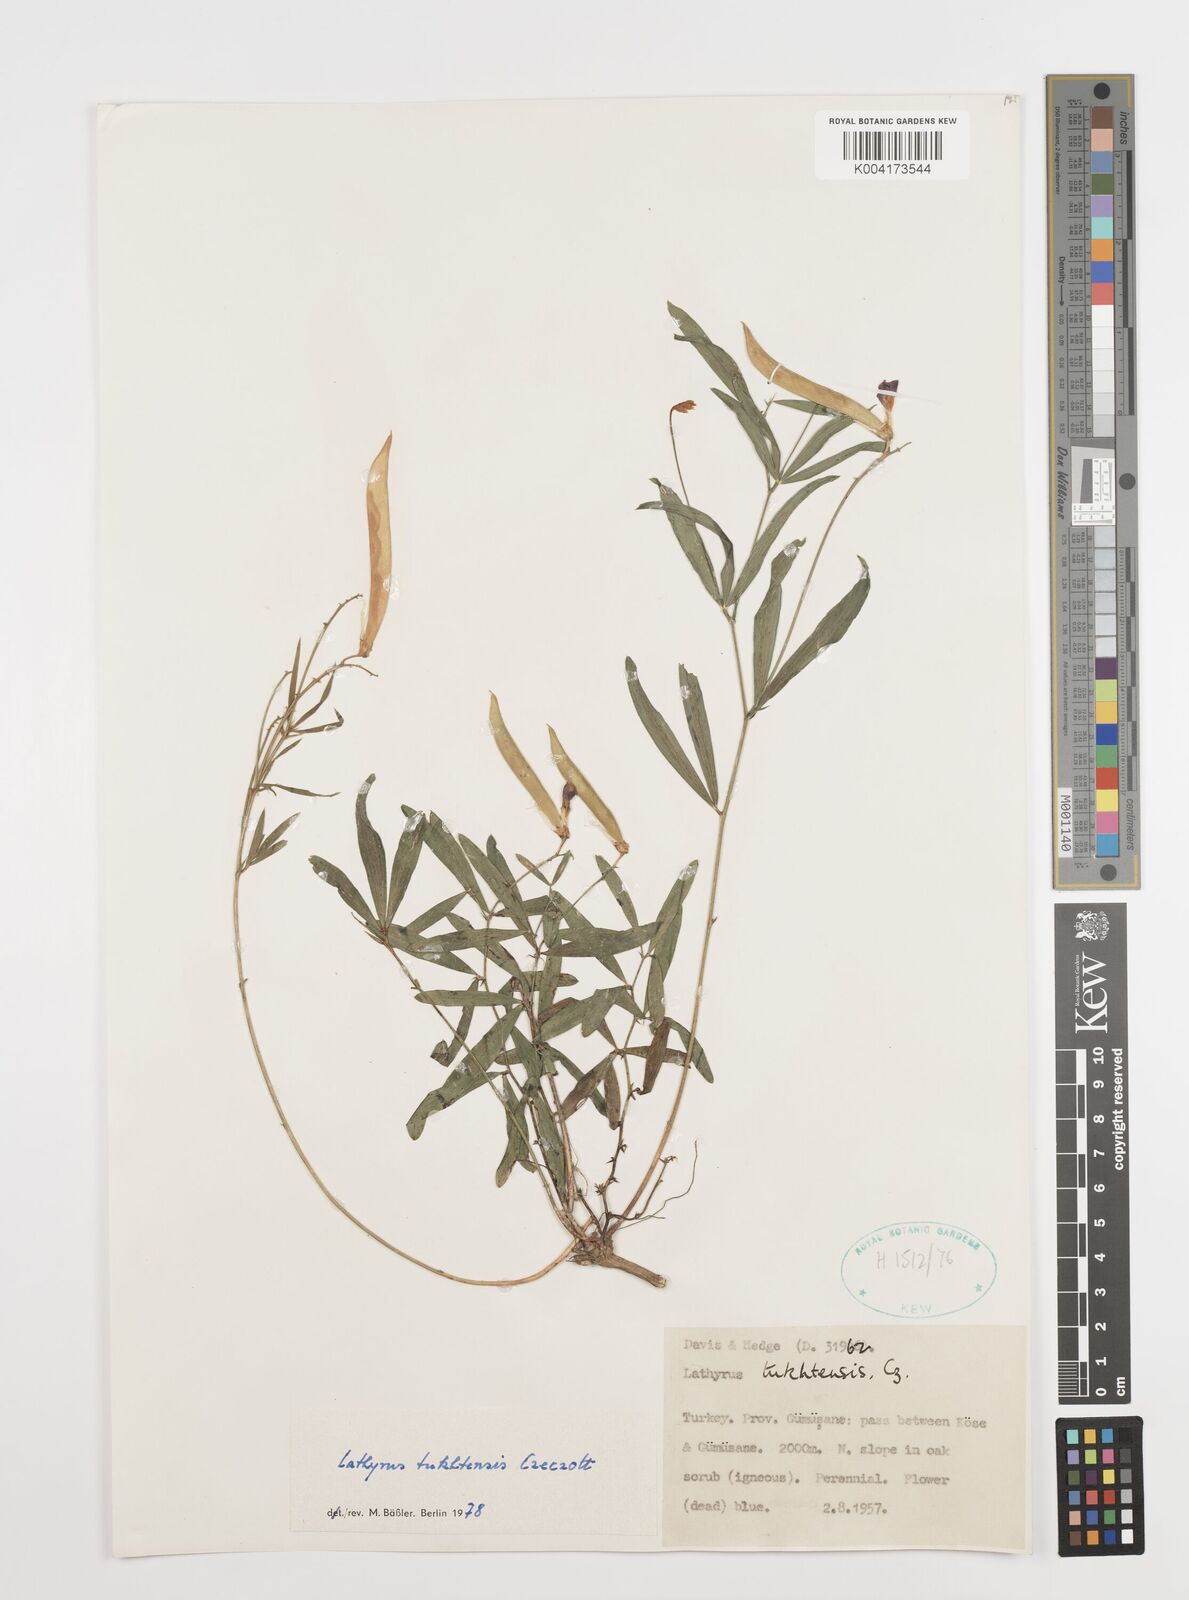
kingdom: Plantae
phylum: Tracheophyta
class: Magnoliopsida
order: Fabales
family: Fabaceae
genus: Lathyrus
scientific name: Lathyrus tukhtensis
